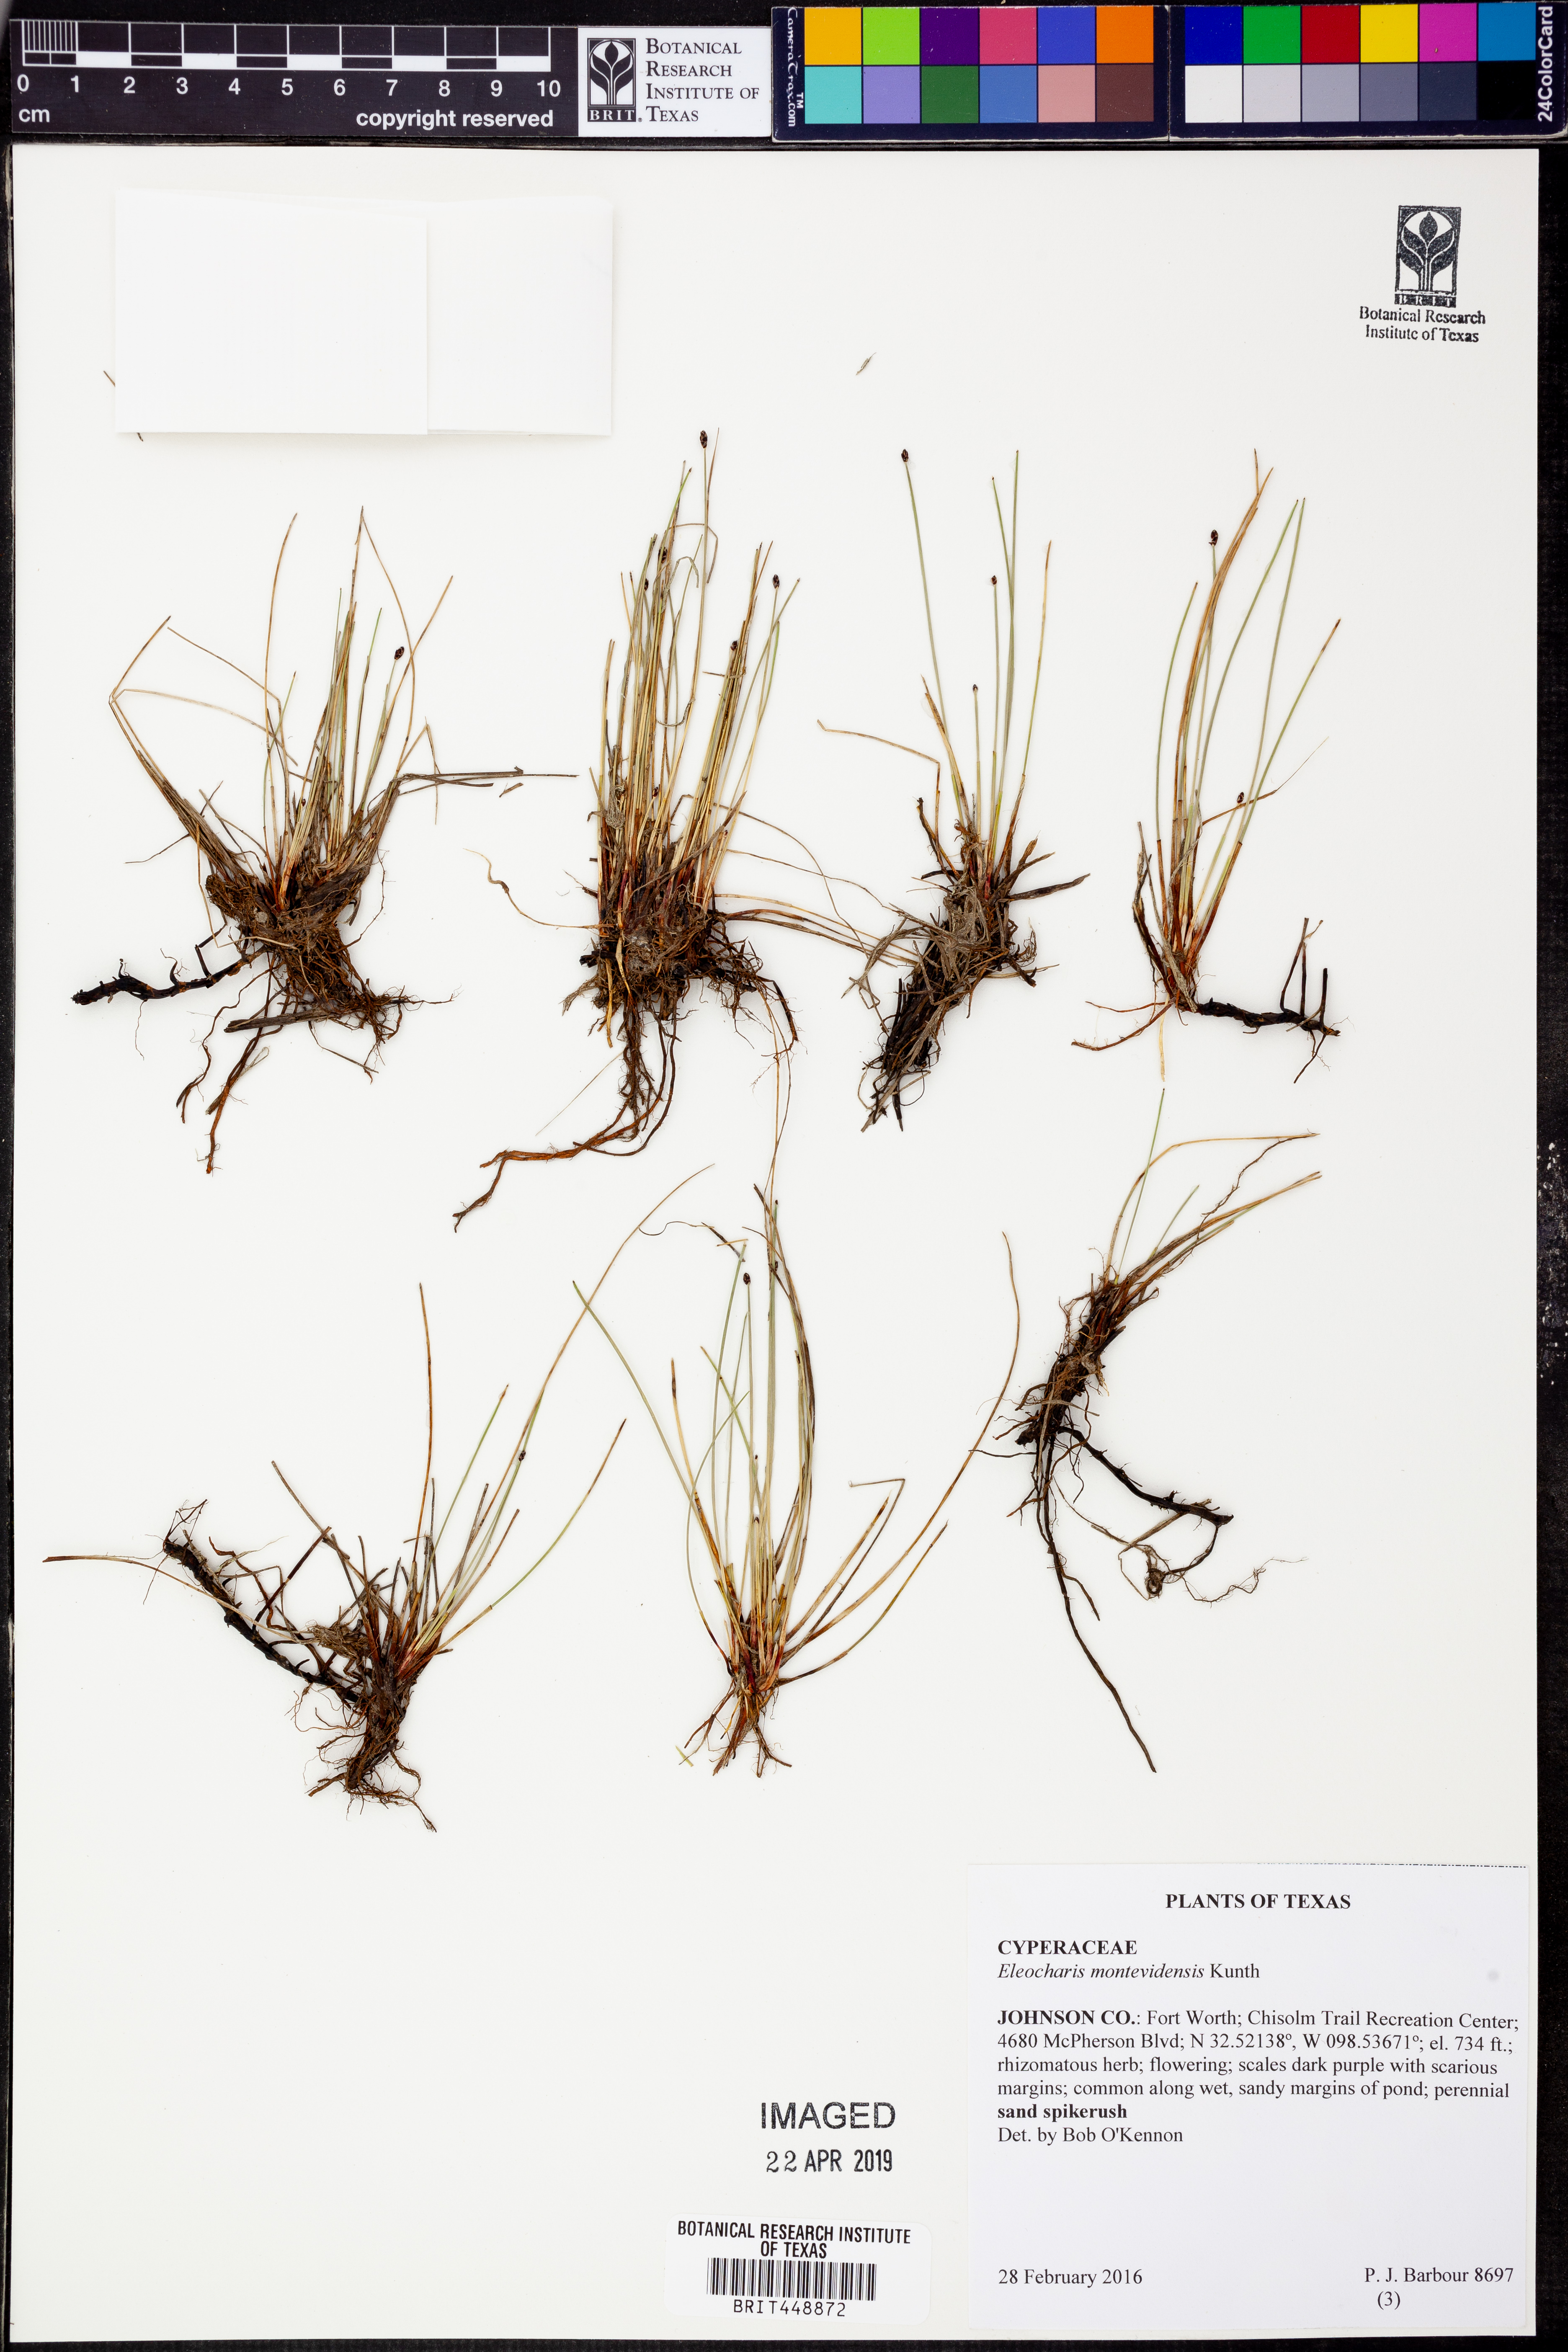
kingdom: Plantae
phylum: Tracheophyta
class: Liliopsida
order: Poales
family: Cyperaceae
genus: Eleocharis
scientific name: Eleocharis montevidensis
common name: Sand spike-rush
